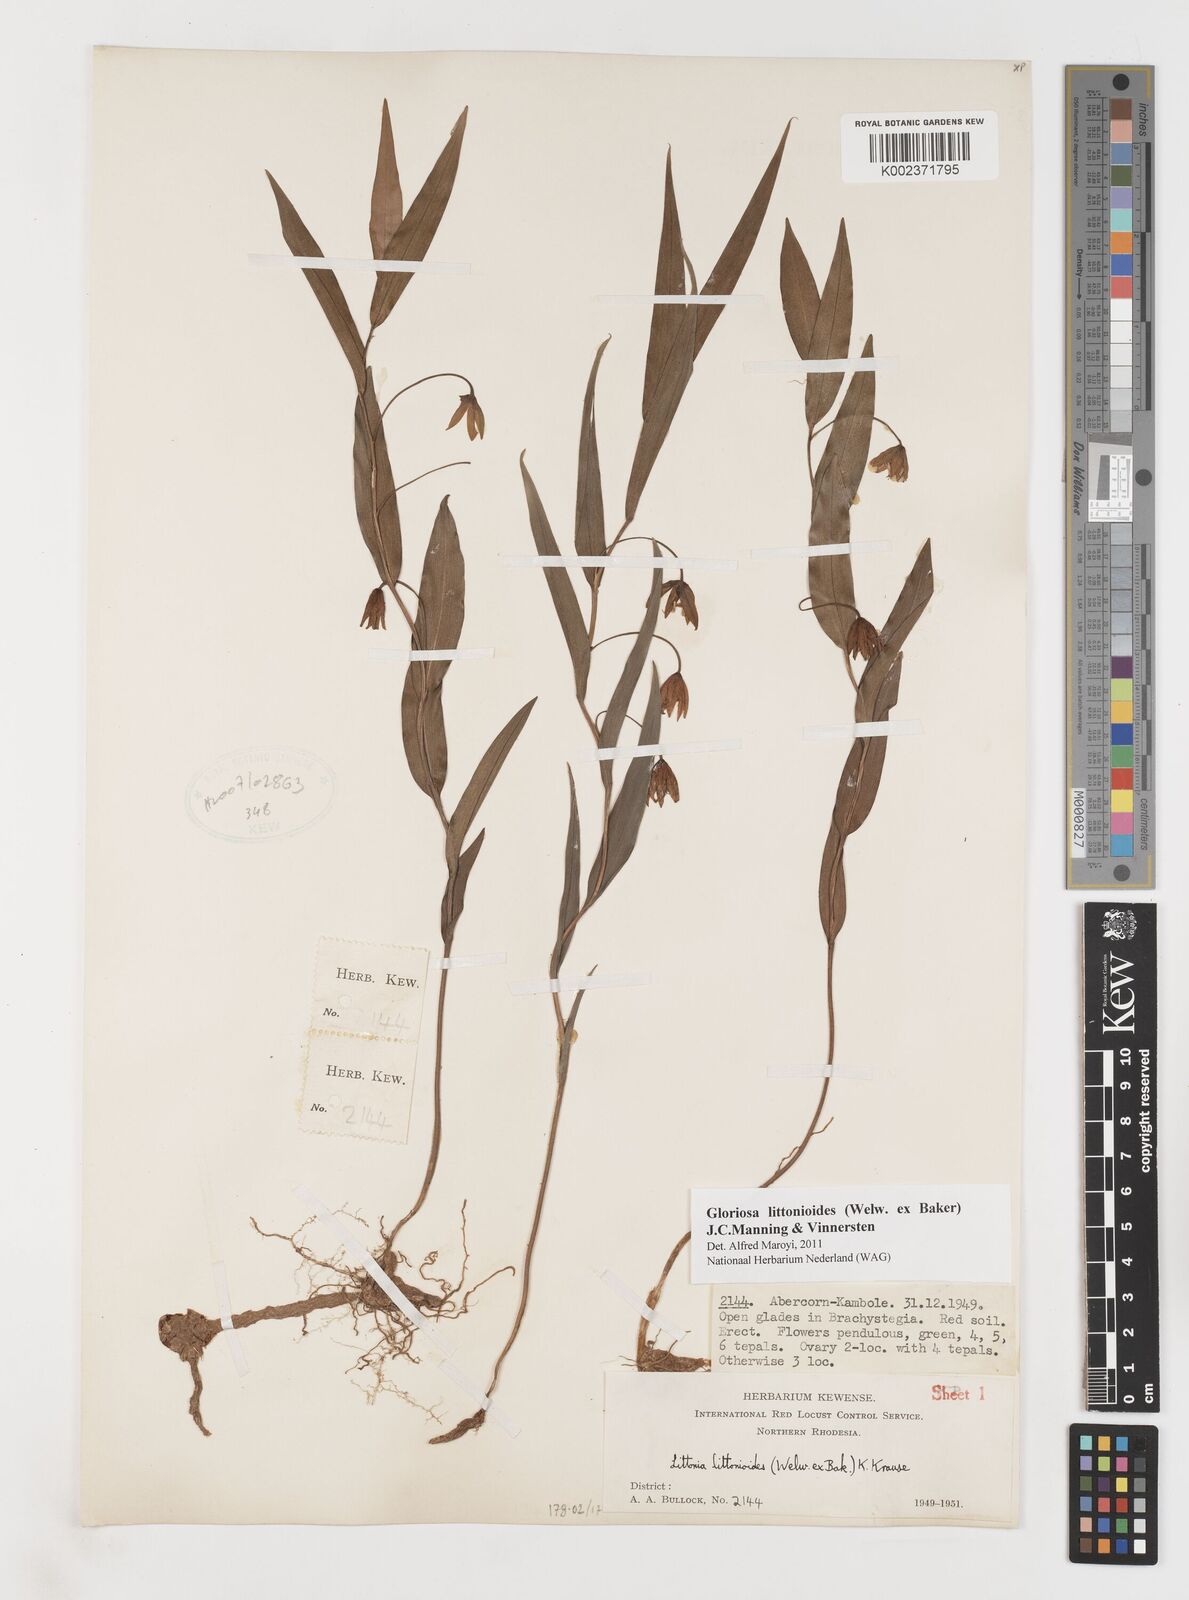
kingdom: Plantae
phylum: Tracheophyta
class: Liliopsida
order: Liliales
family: Colchicaceae
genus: Gloriosa
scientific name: Gloriosa littonioides
